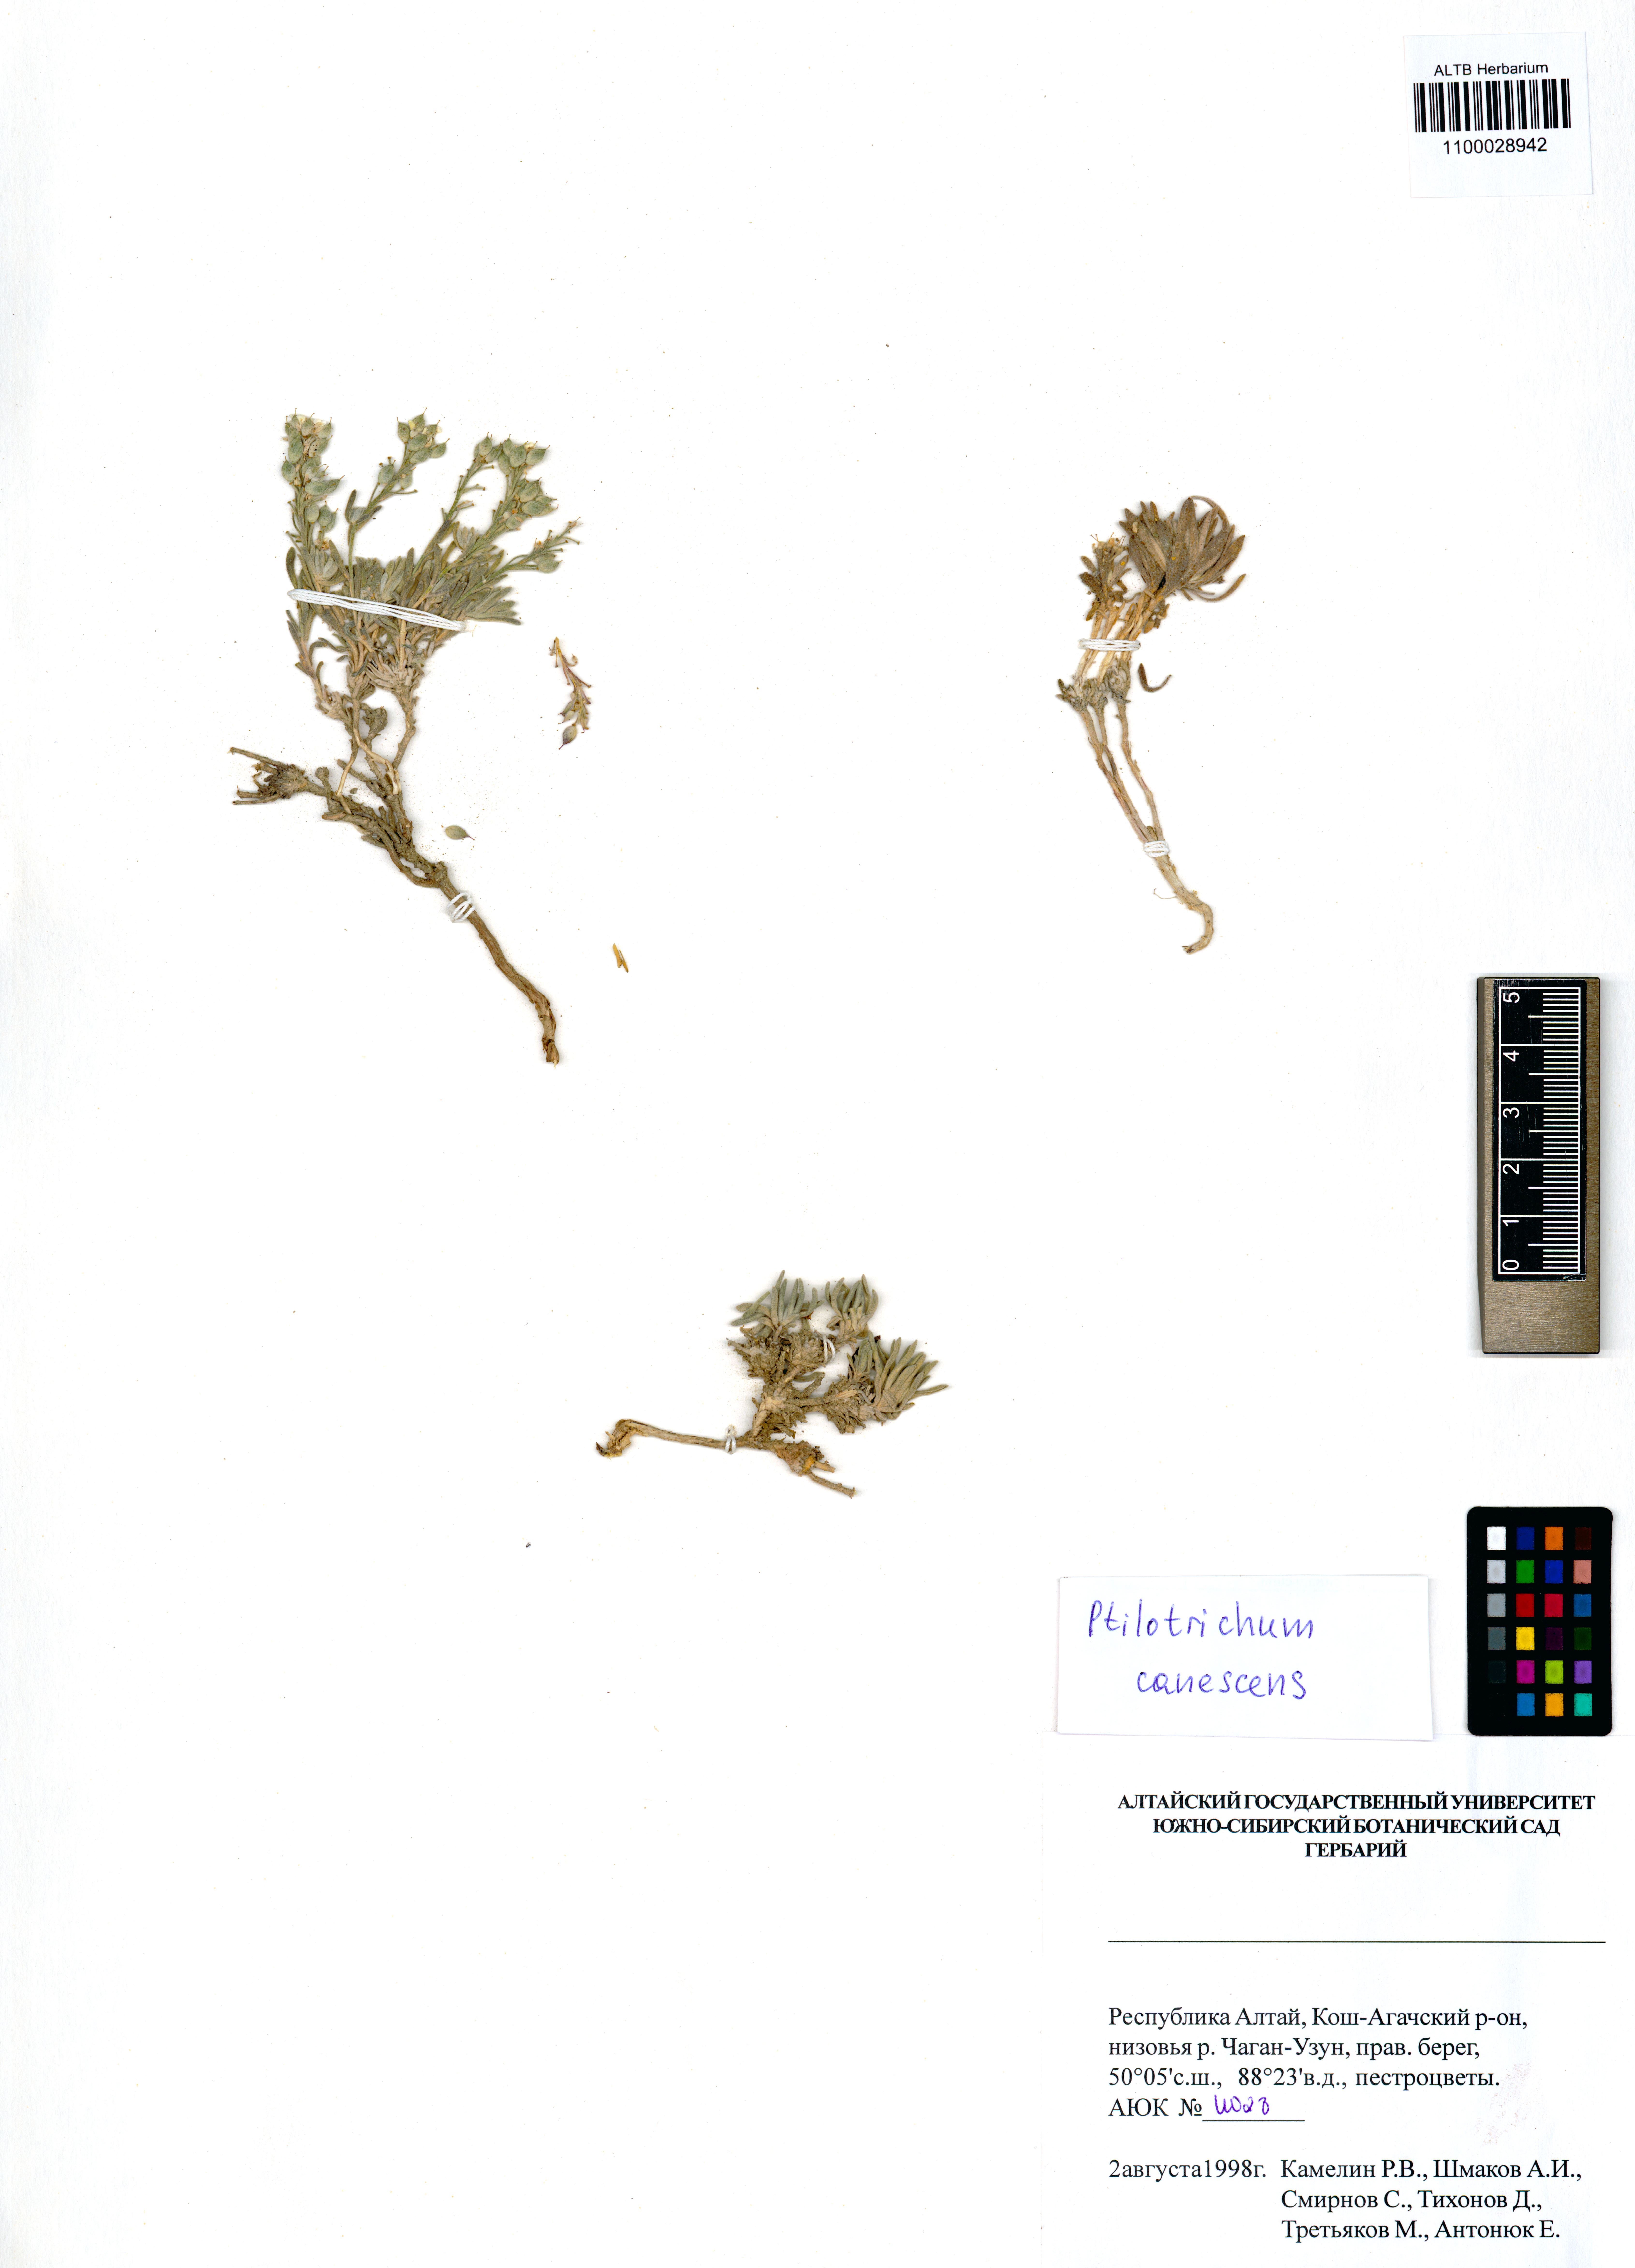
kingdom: Plantae
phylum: Tracheophyta
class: Magnoliopsida
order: Brassicales
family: Brassicaceae
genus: Stevenia
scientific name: Stevenia canescens
